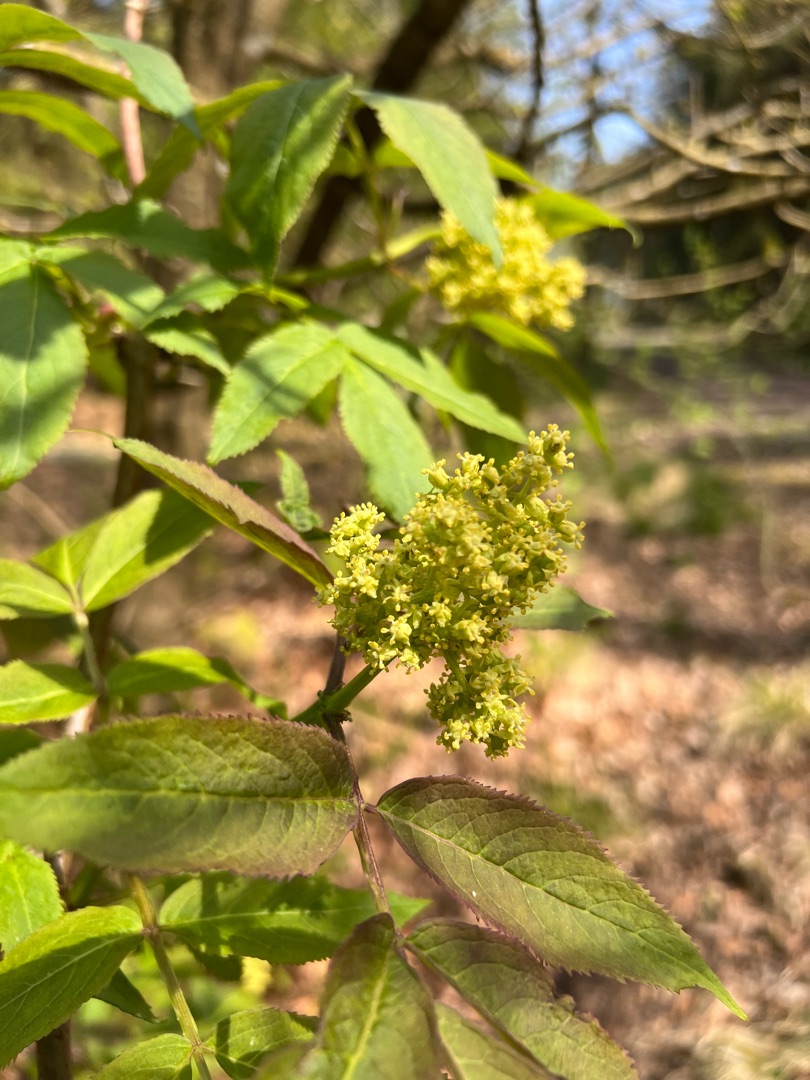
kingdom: Plantae
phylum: Tracheophyta
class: Magnoliopsida
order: Dipsacales
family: Viburnaceae
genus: Sambucus
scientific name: Sambucus racemosa
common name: Drue-hyld
